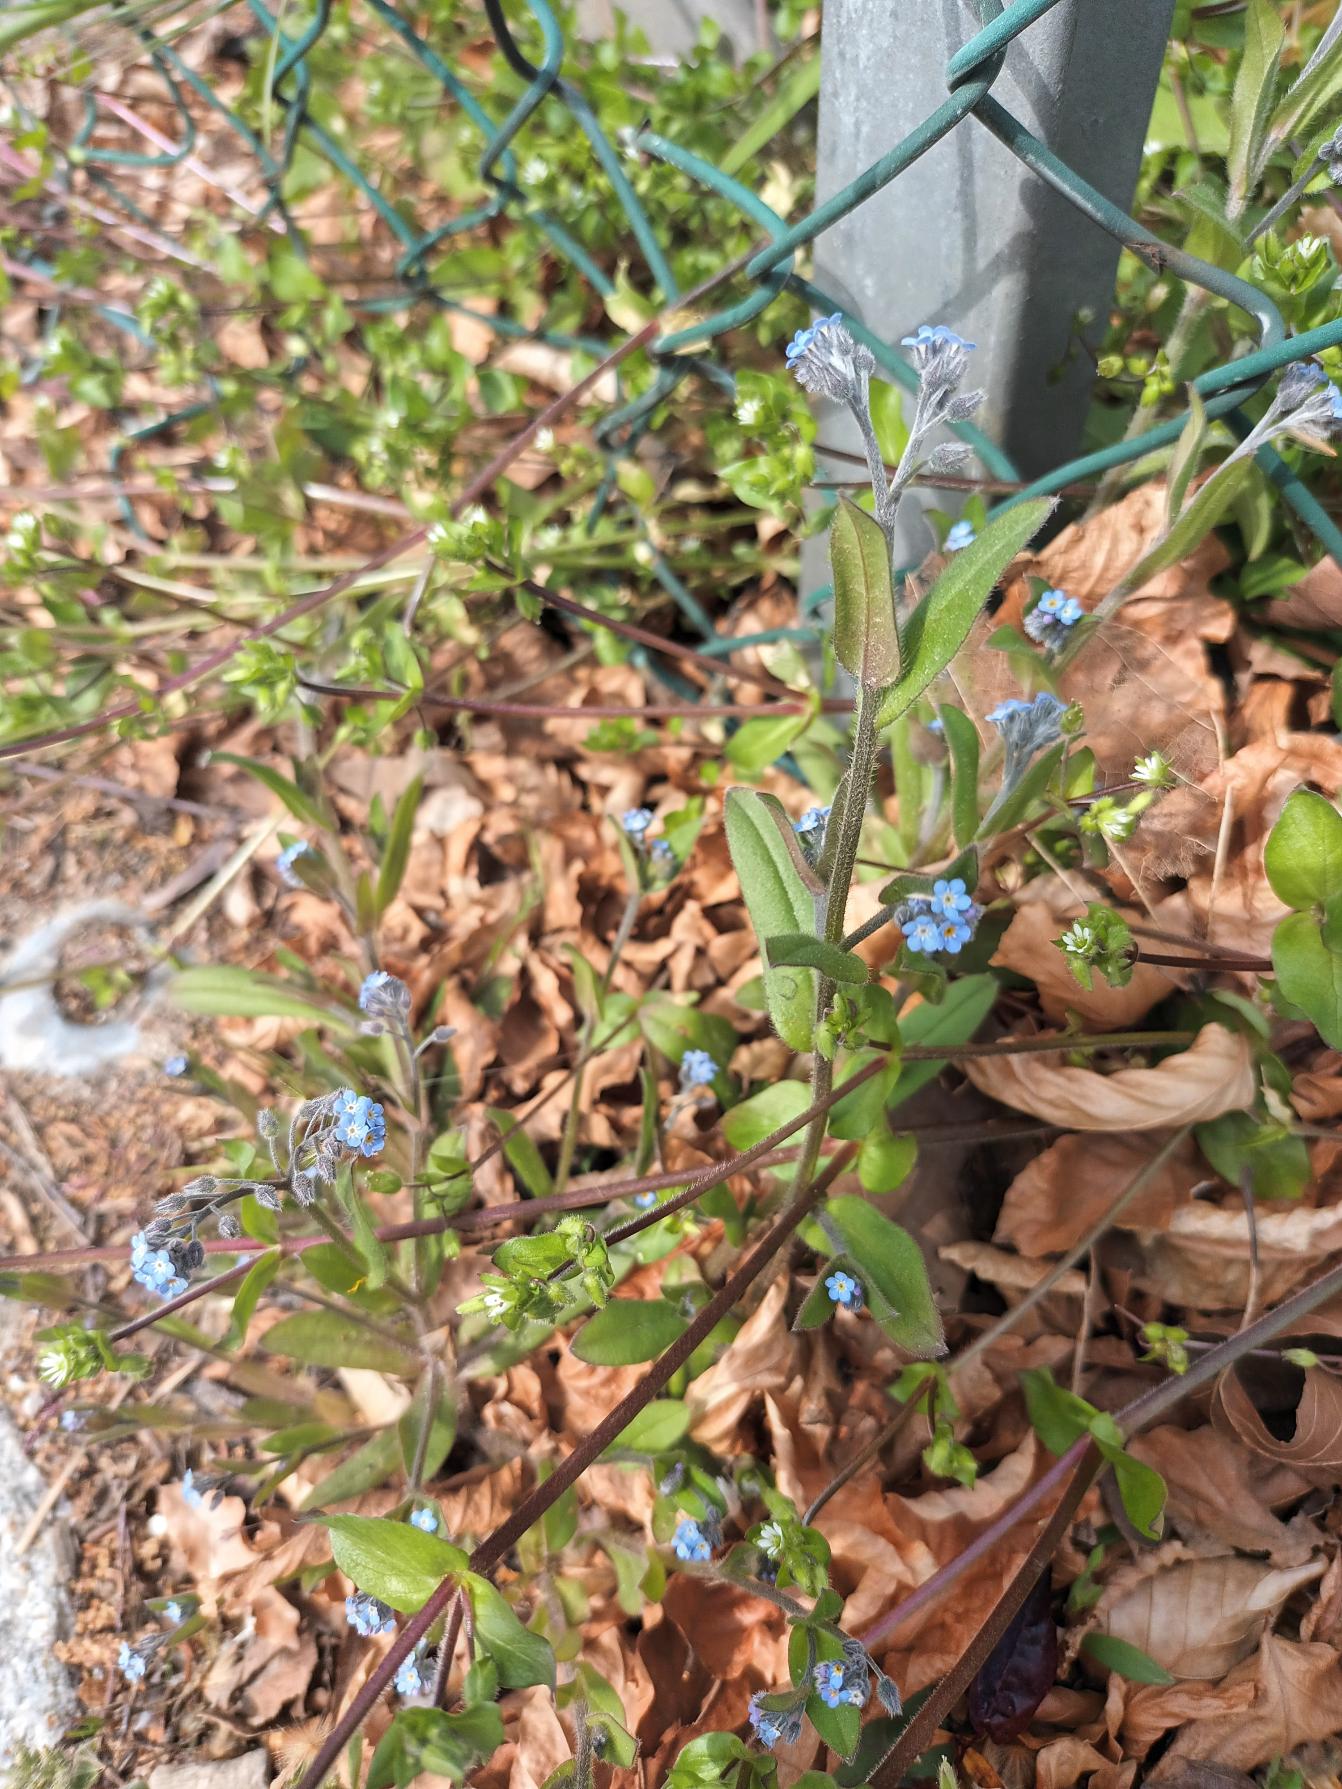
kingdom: Plantae
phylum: Tracheophyta
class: Magnoliopsida
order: Boraginales
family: Boraginaceae
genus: Myosotis
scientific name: Myosotis arvensis
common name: Mark-forglemmigej
